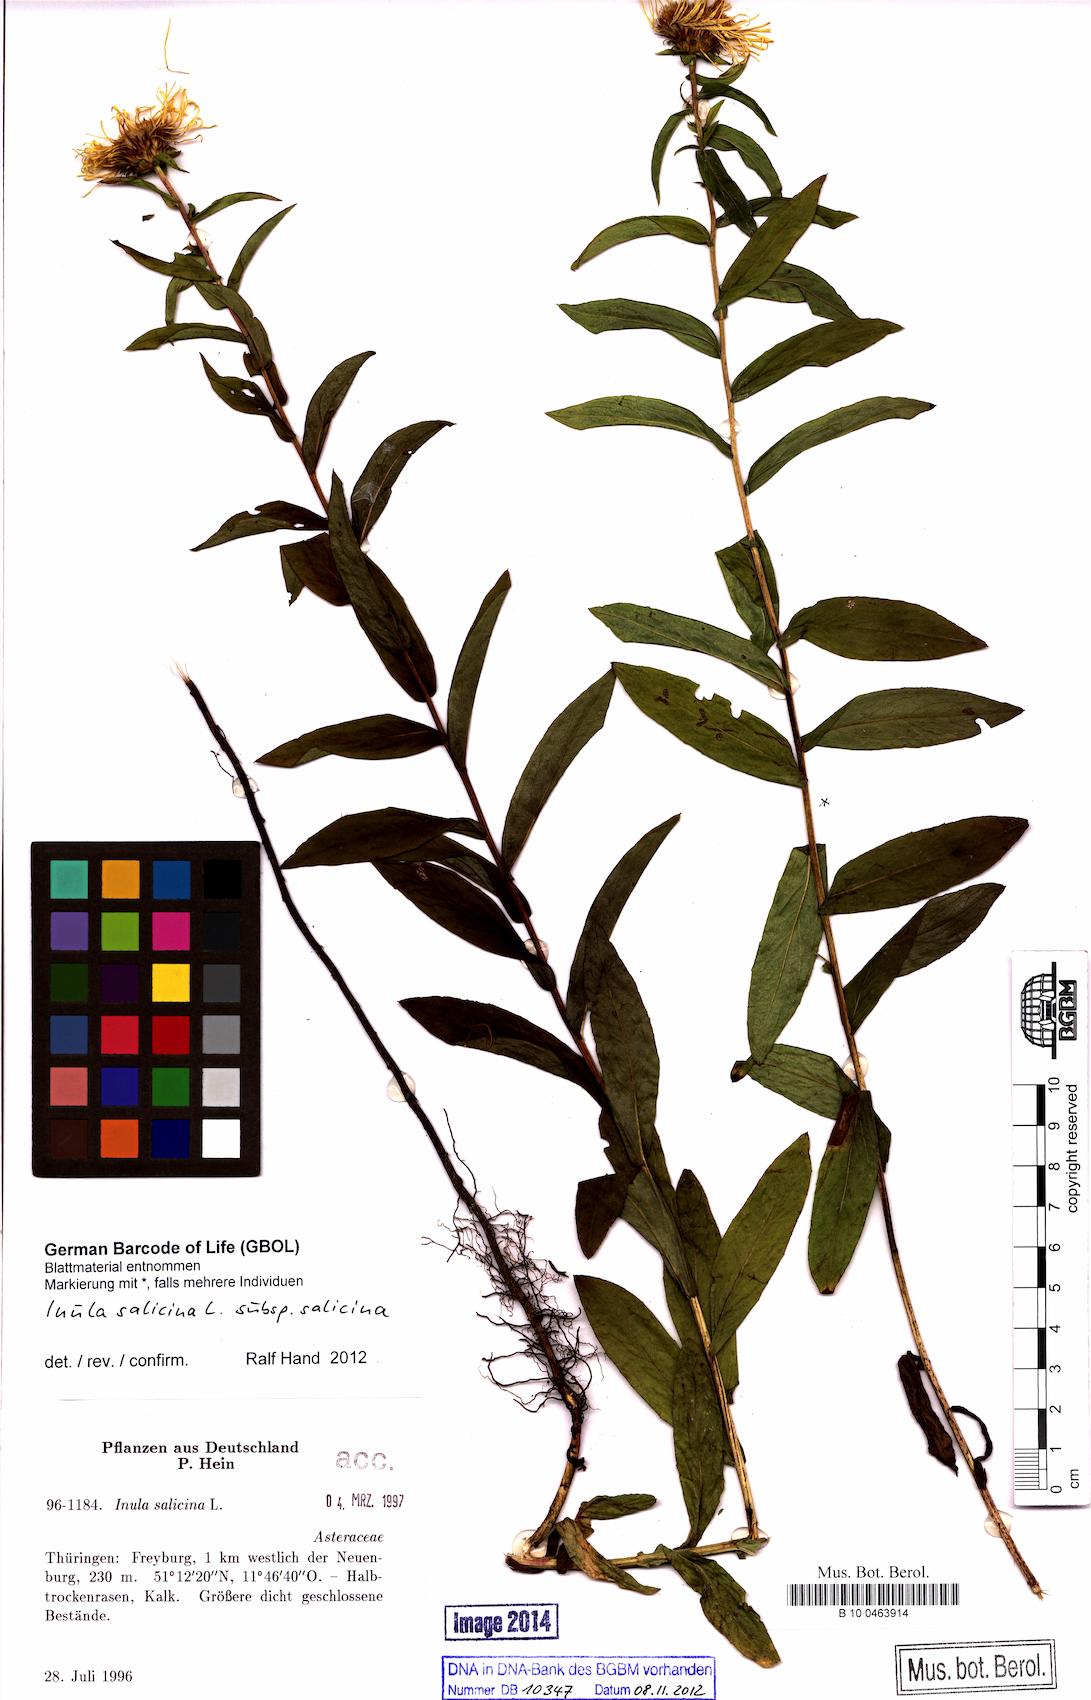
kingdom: Plantae
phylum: Tracheophyta
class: Magnoliopsida
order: Asterales
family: Asteraceae
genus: Pentanema
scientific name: Pentanema salicinum
